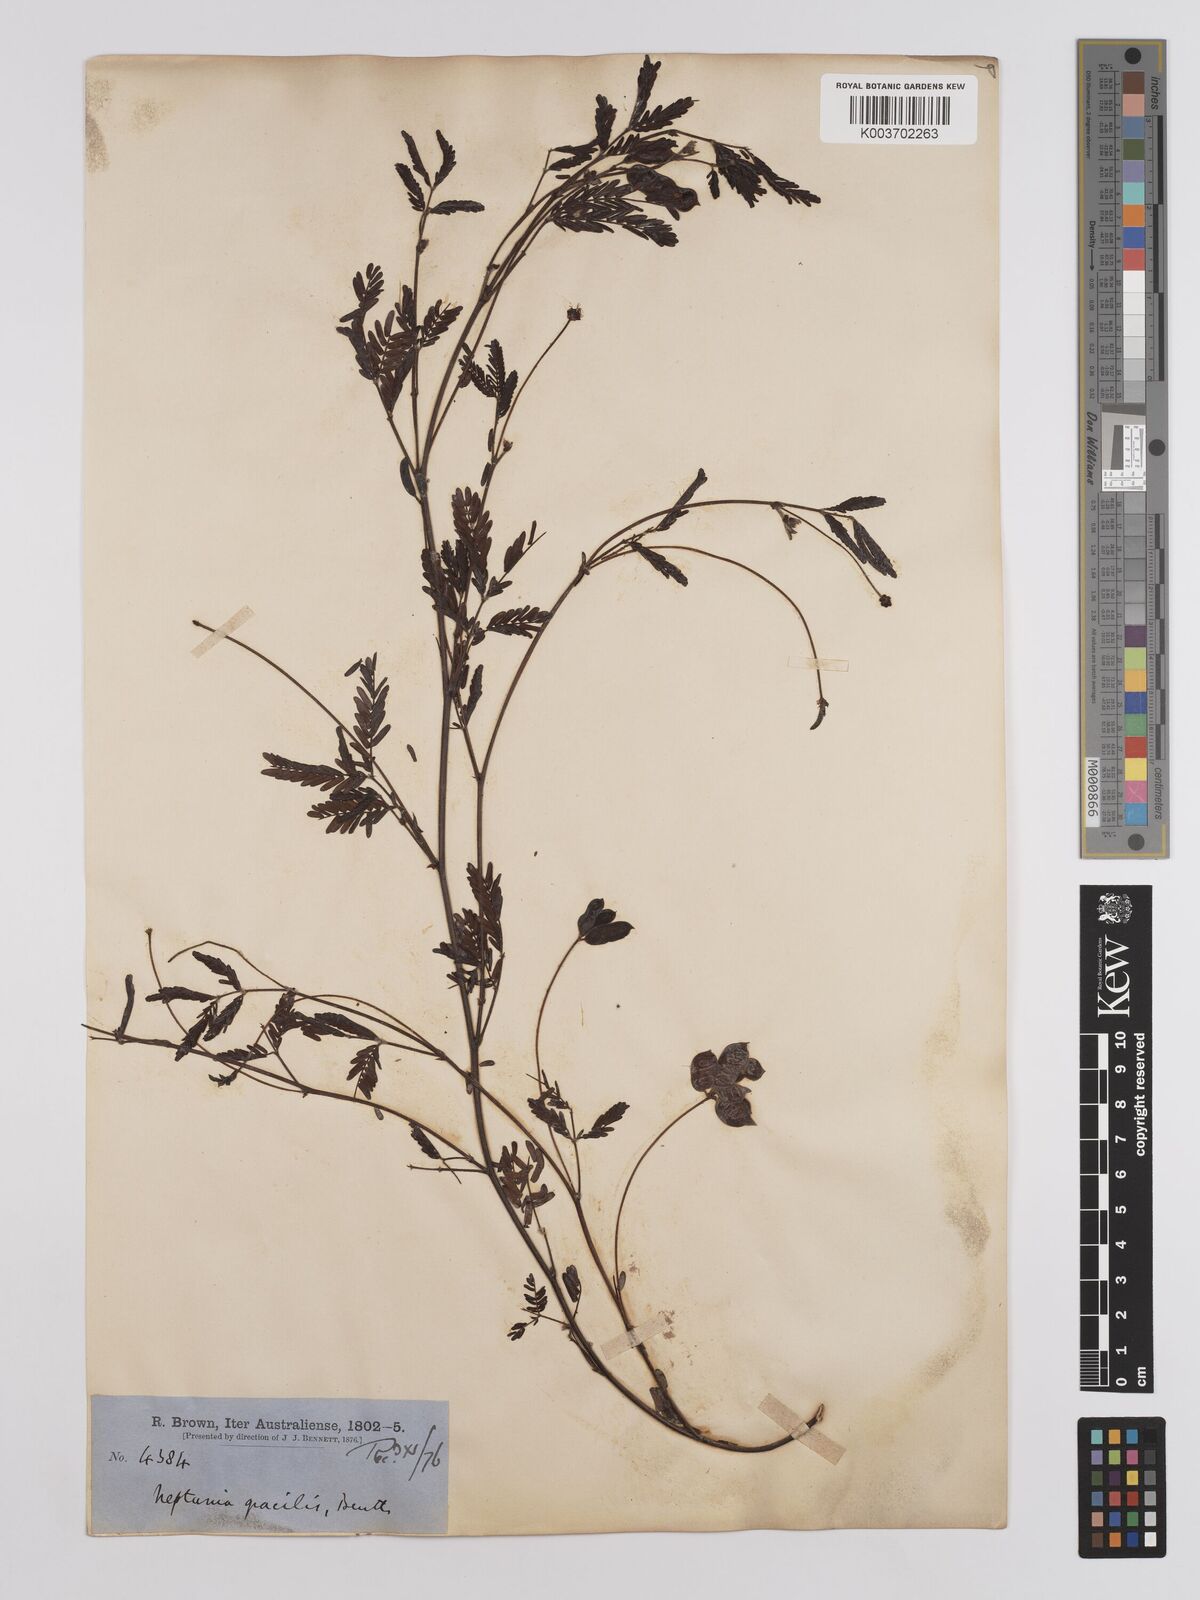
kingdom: Plantae
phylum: Tracheophyta
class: Magnoliopsida
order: Fabales
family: Fabaceae
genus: Neptunia
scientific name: Neptunia gracilis
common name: Sensitive-plant
